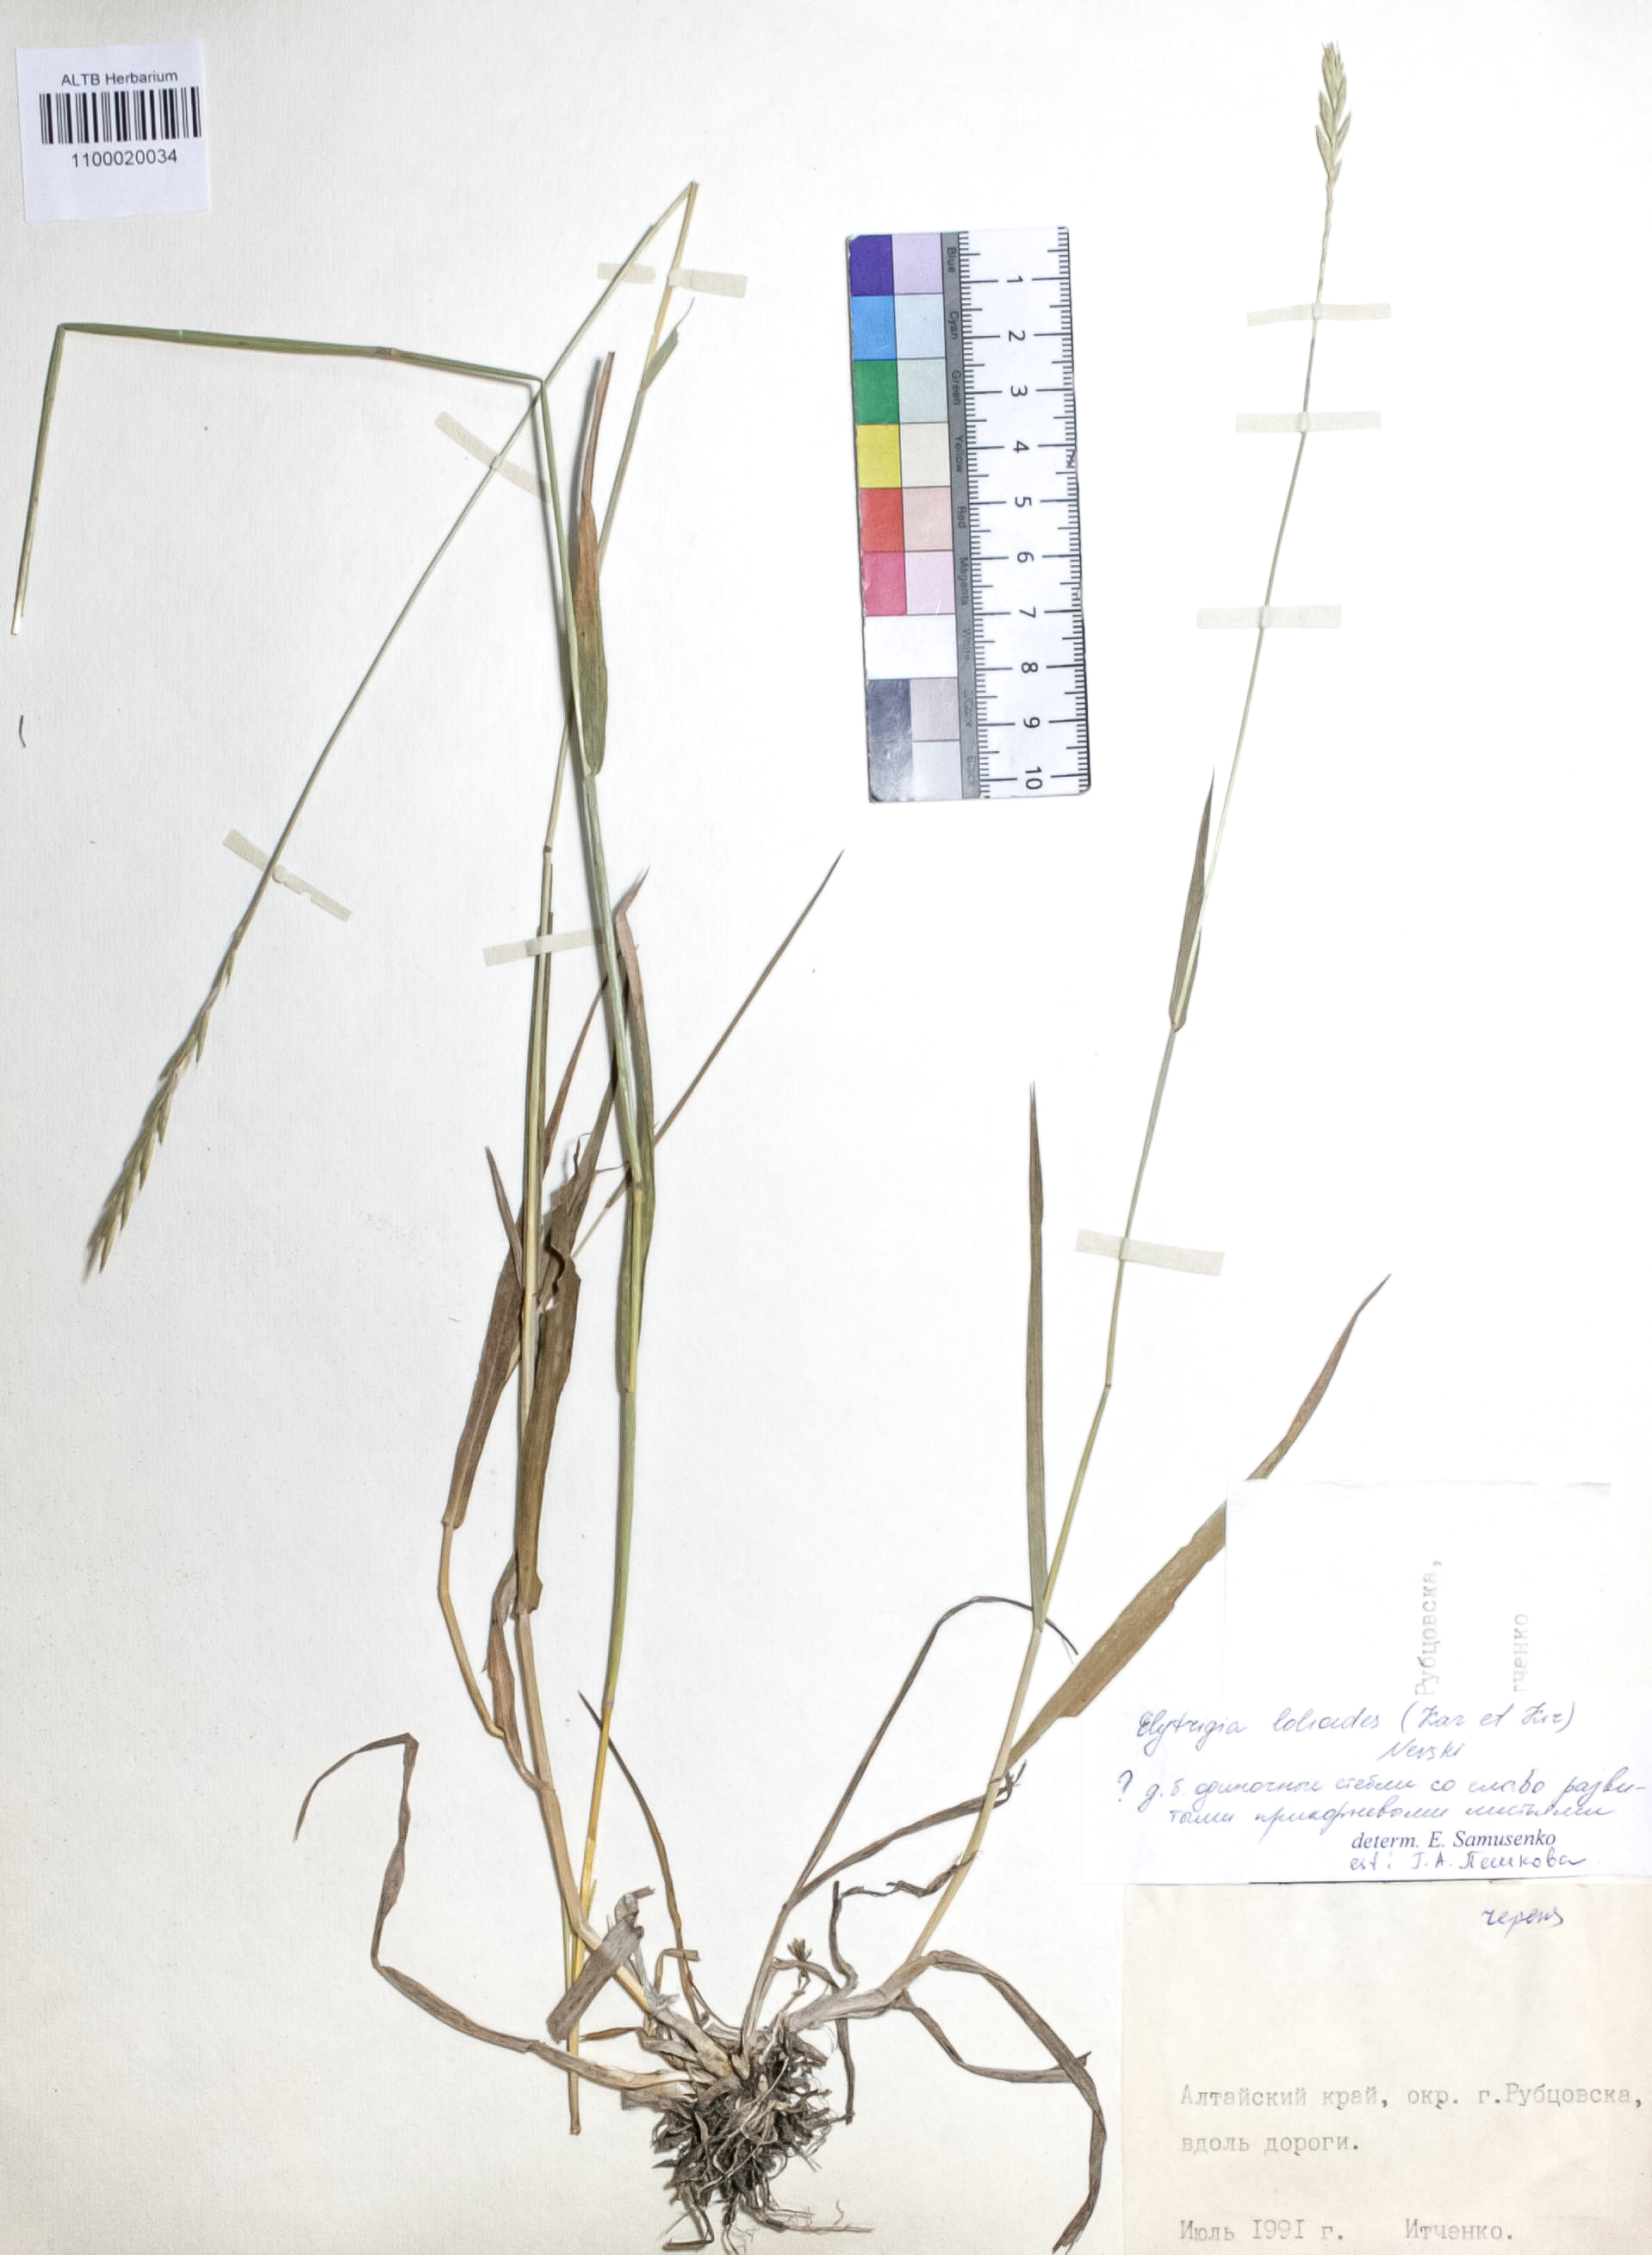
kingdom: Plantae
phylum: Tracheophyta
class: Liliopsida
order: Poales
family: Poaceae
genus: Elymus
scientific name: Elymus lolioides
